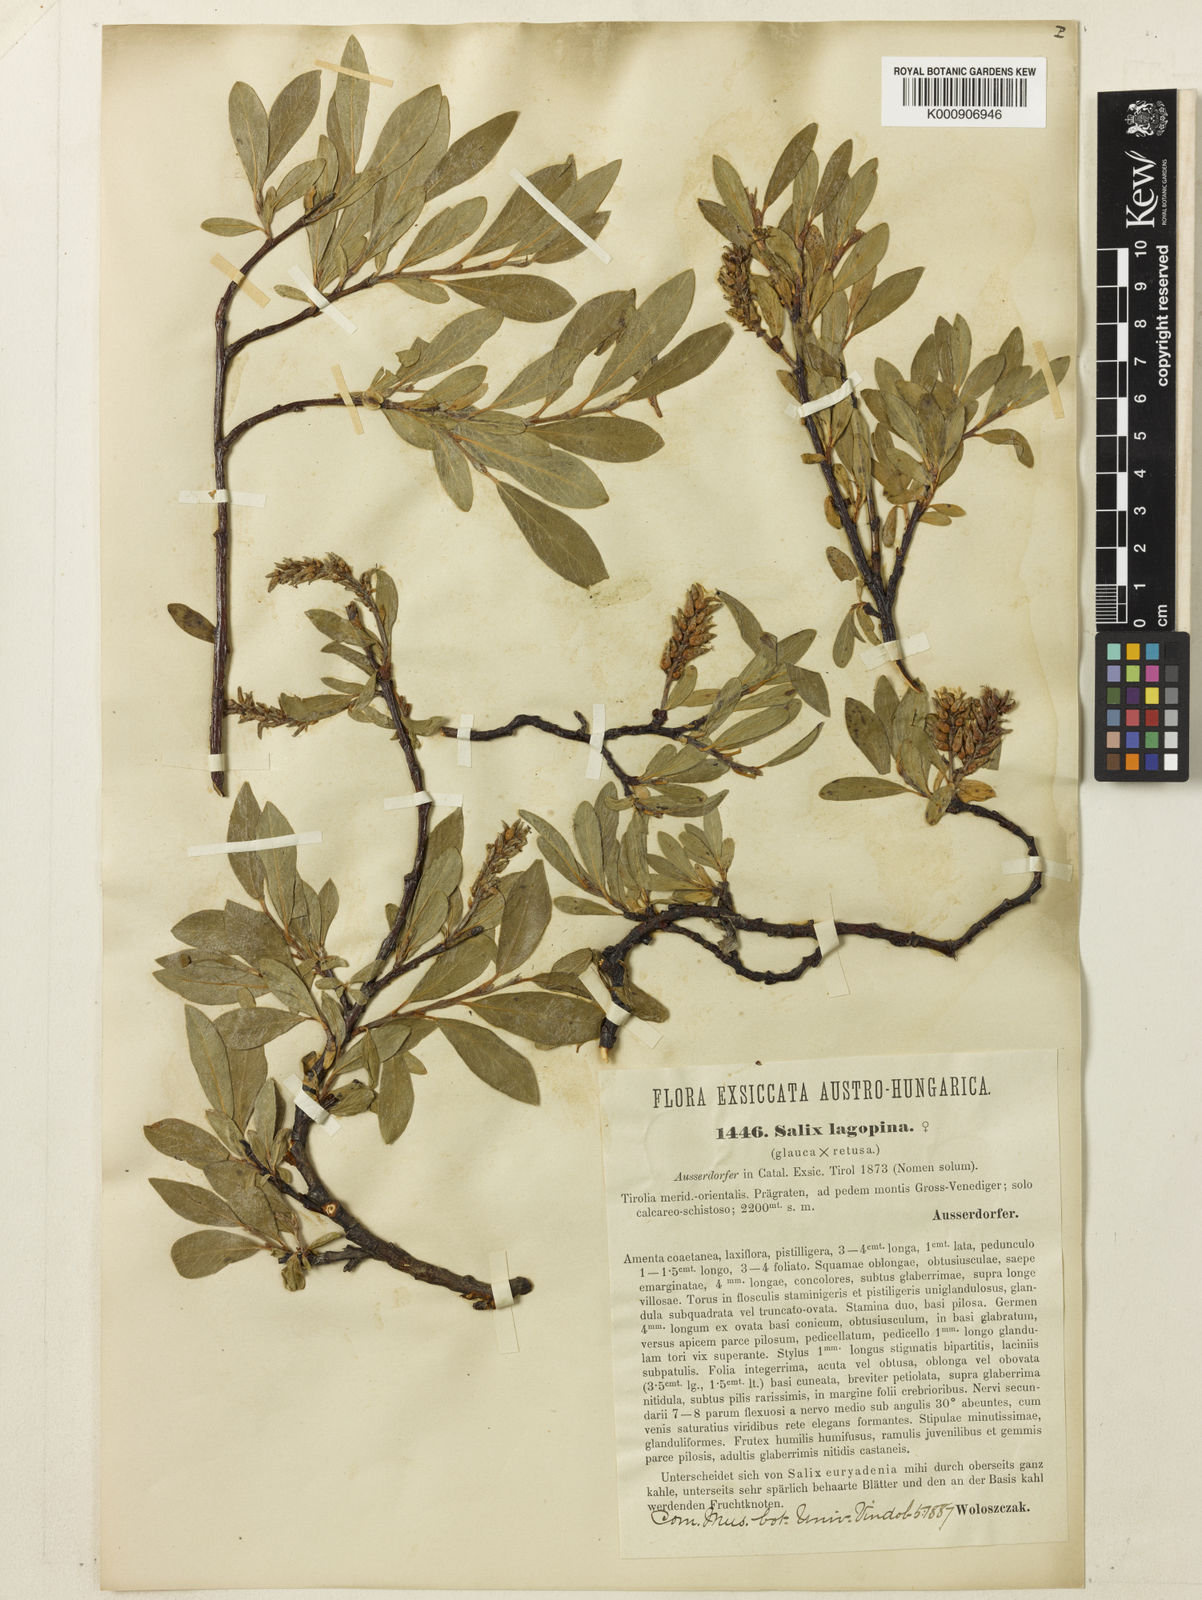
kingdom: Plantae
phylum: Tracheophyta
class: Magnoliopsida
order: Malpighiales
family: Salicaceae
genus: Salix
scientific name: Salix lapponum
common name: Downy willow
